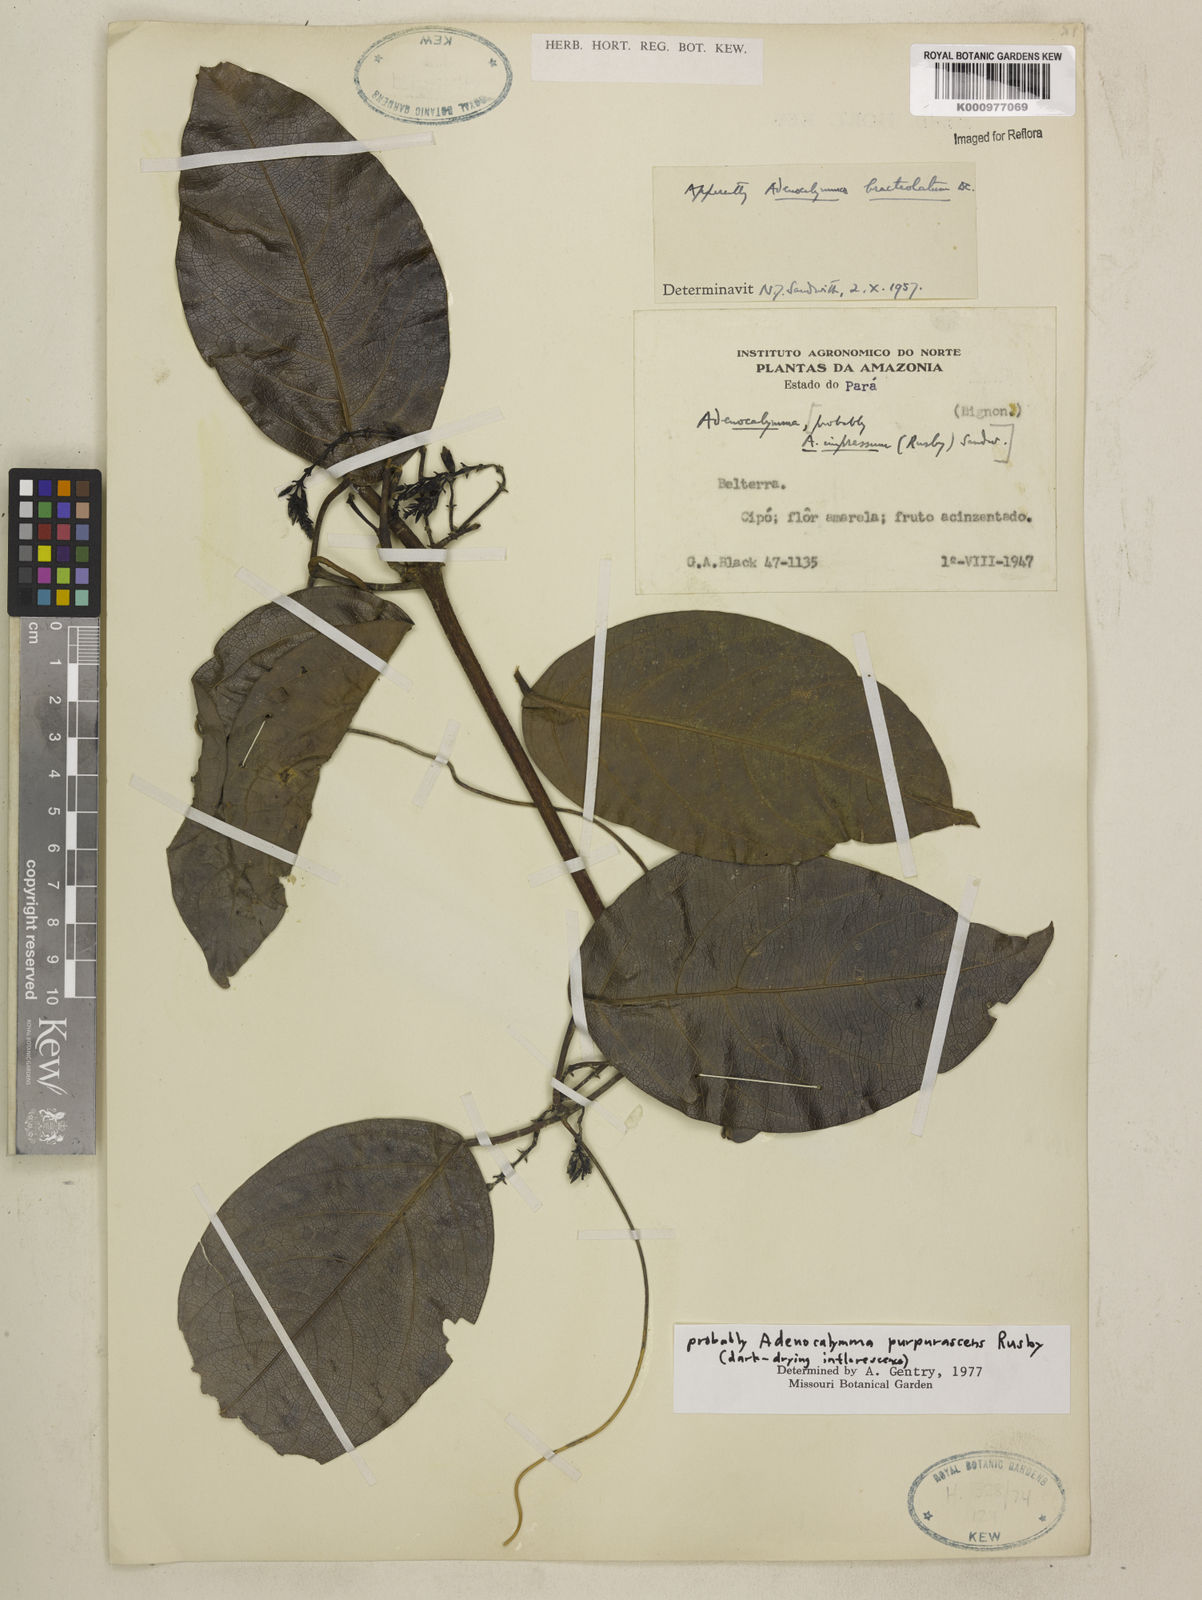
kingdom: Plantae
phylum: Tracheophyta
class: Magnoliopsida
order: Lamiales
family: Bignoniaceae
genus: Adenocalymma
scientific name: Adenocalymma purpurascens
